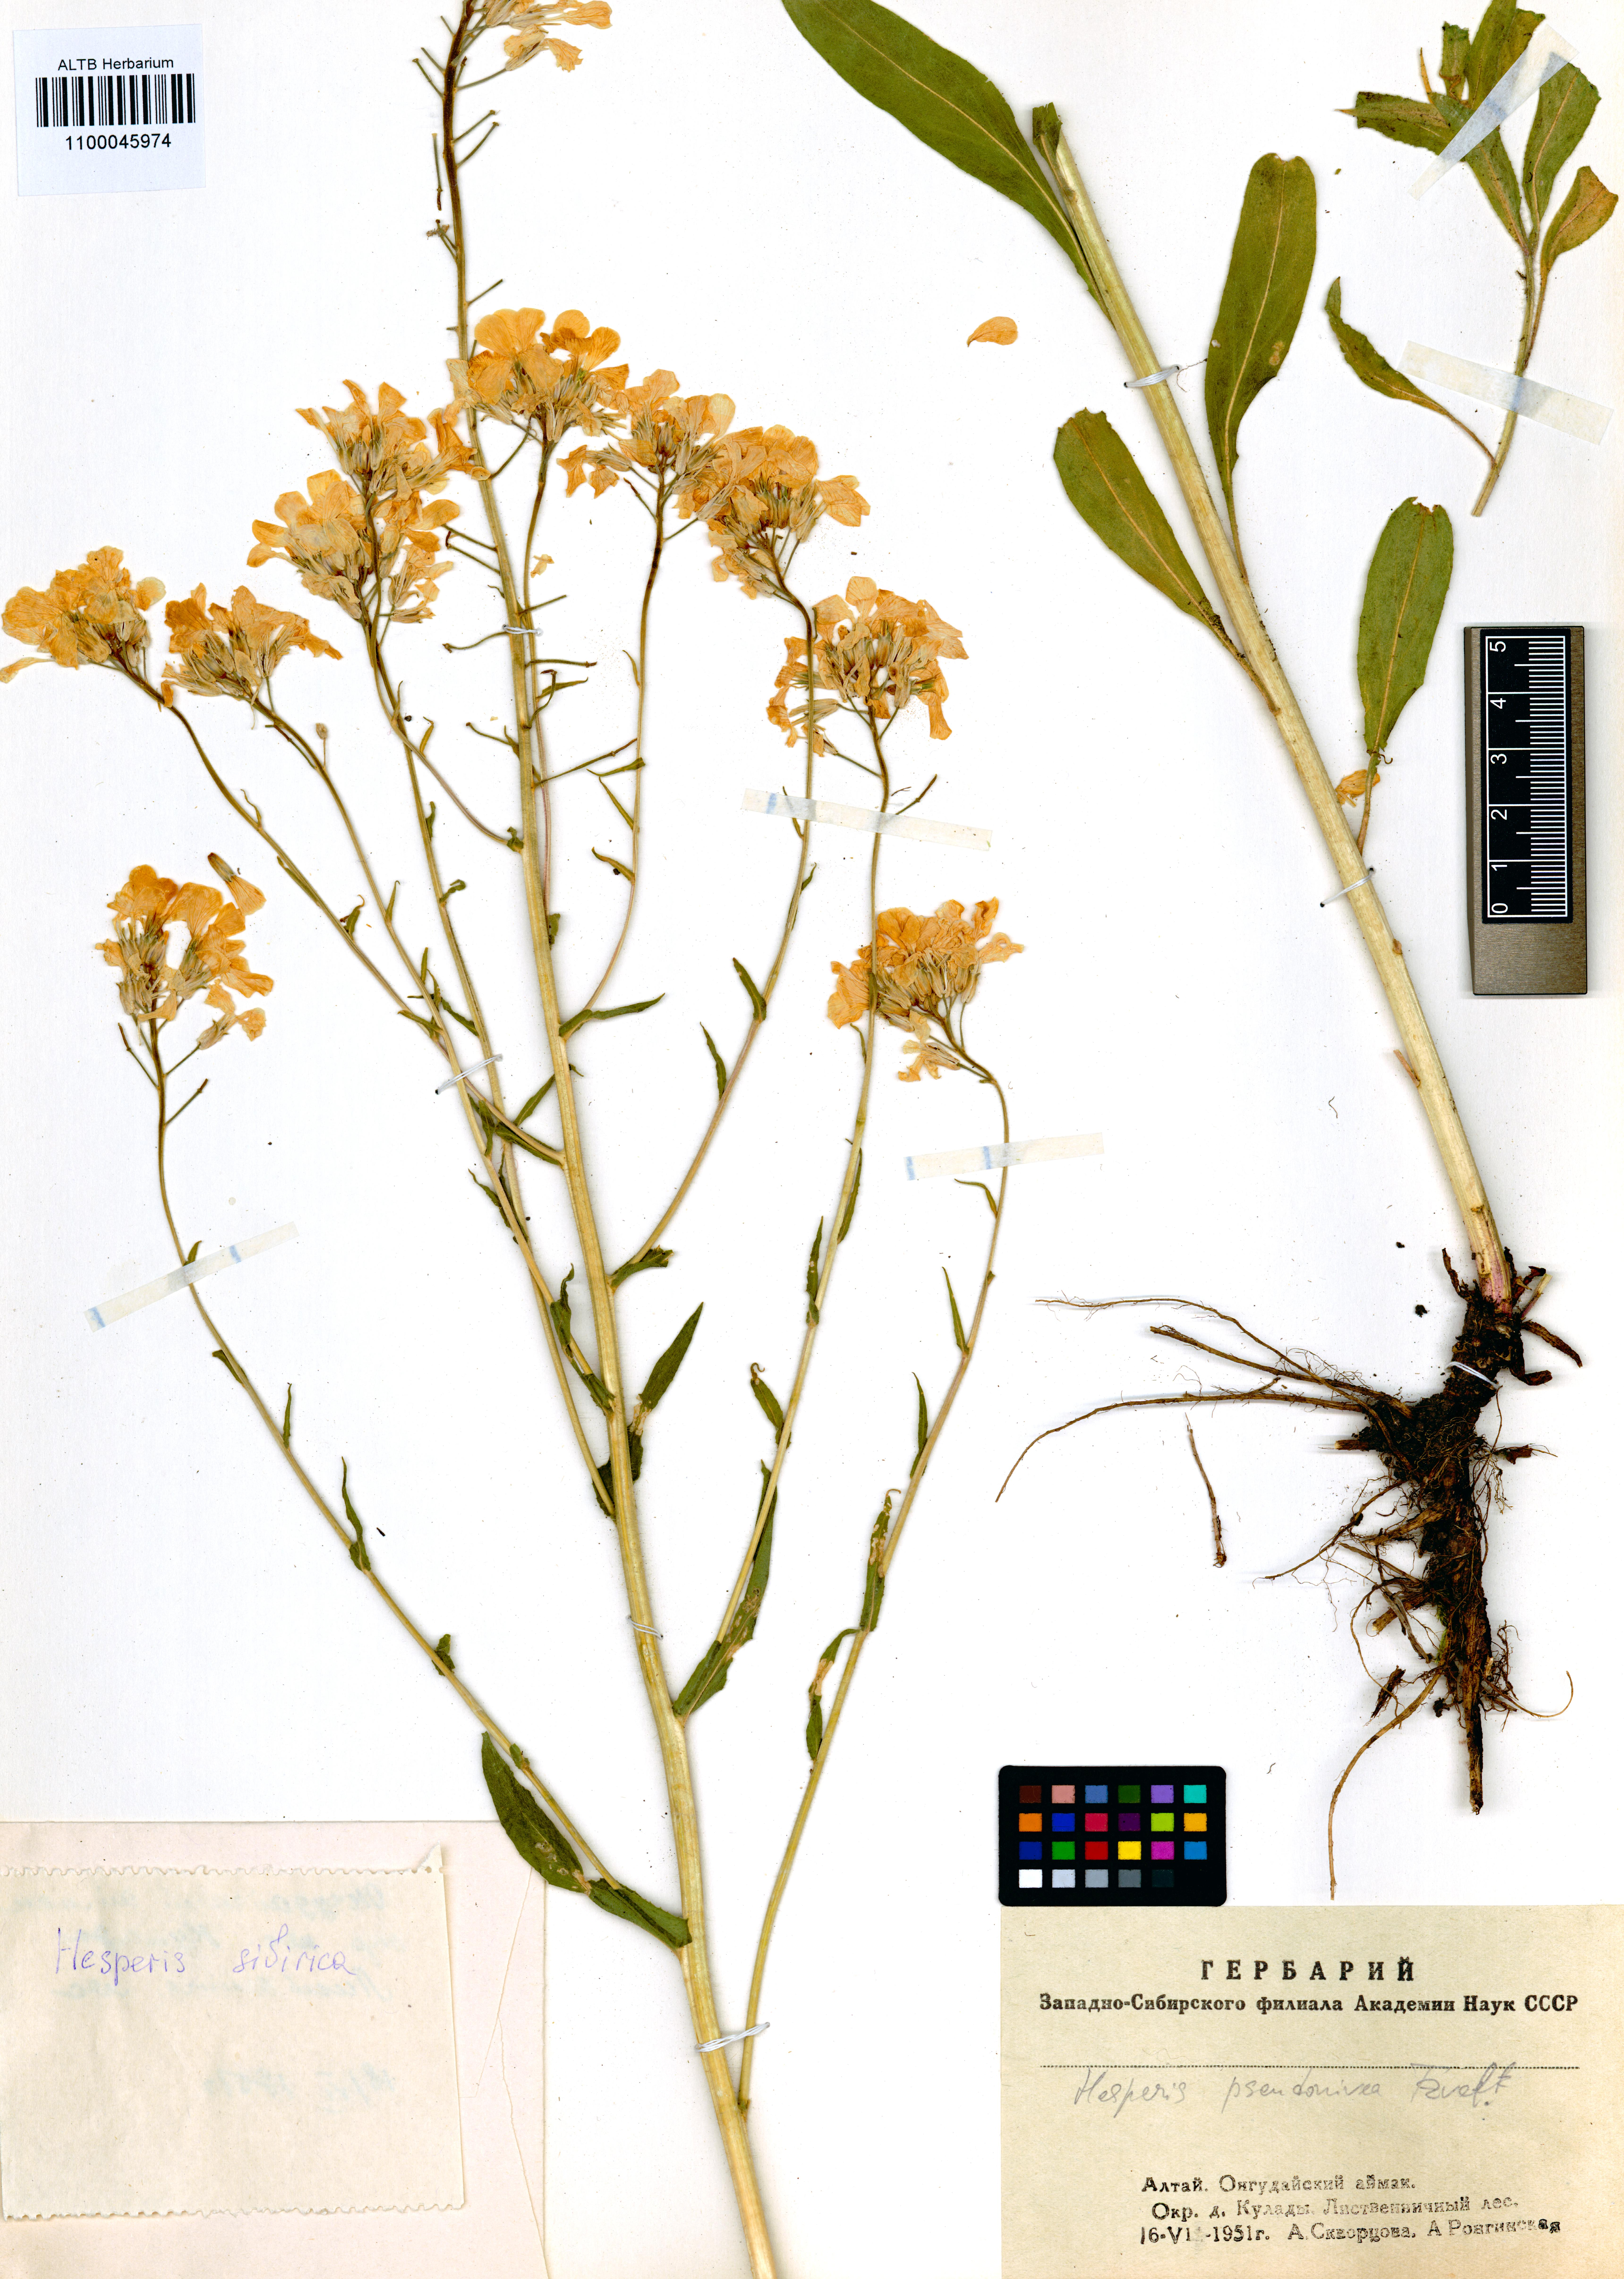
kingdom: Plantae
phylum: Tracheophyta
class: Magnoliopsida
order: Brassicales
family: Brassicaceae
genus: Hesperis
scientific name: Hesperis sibirica
